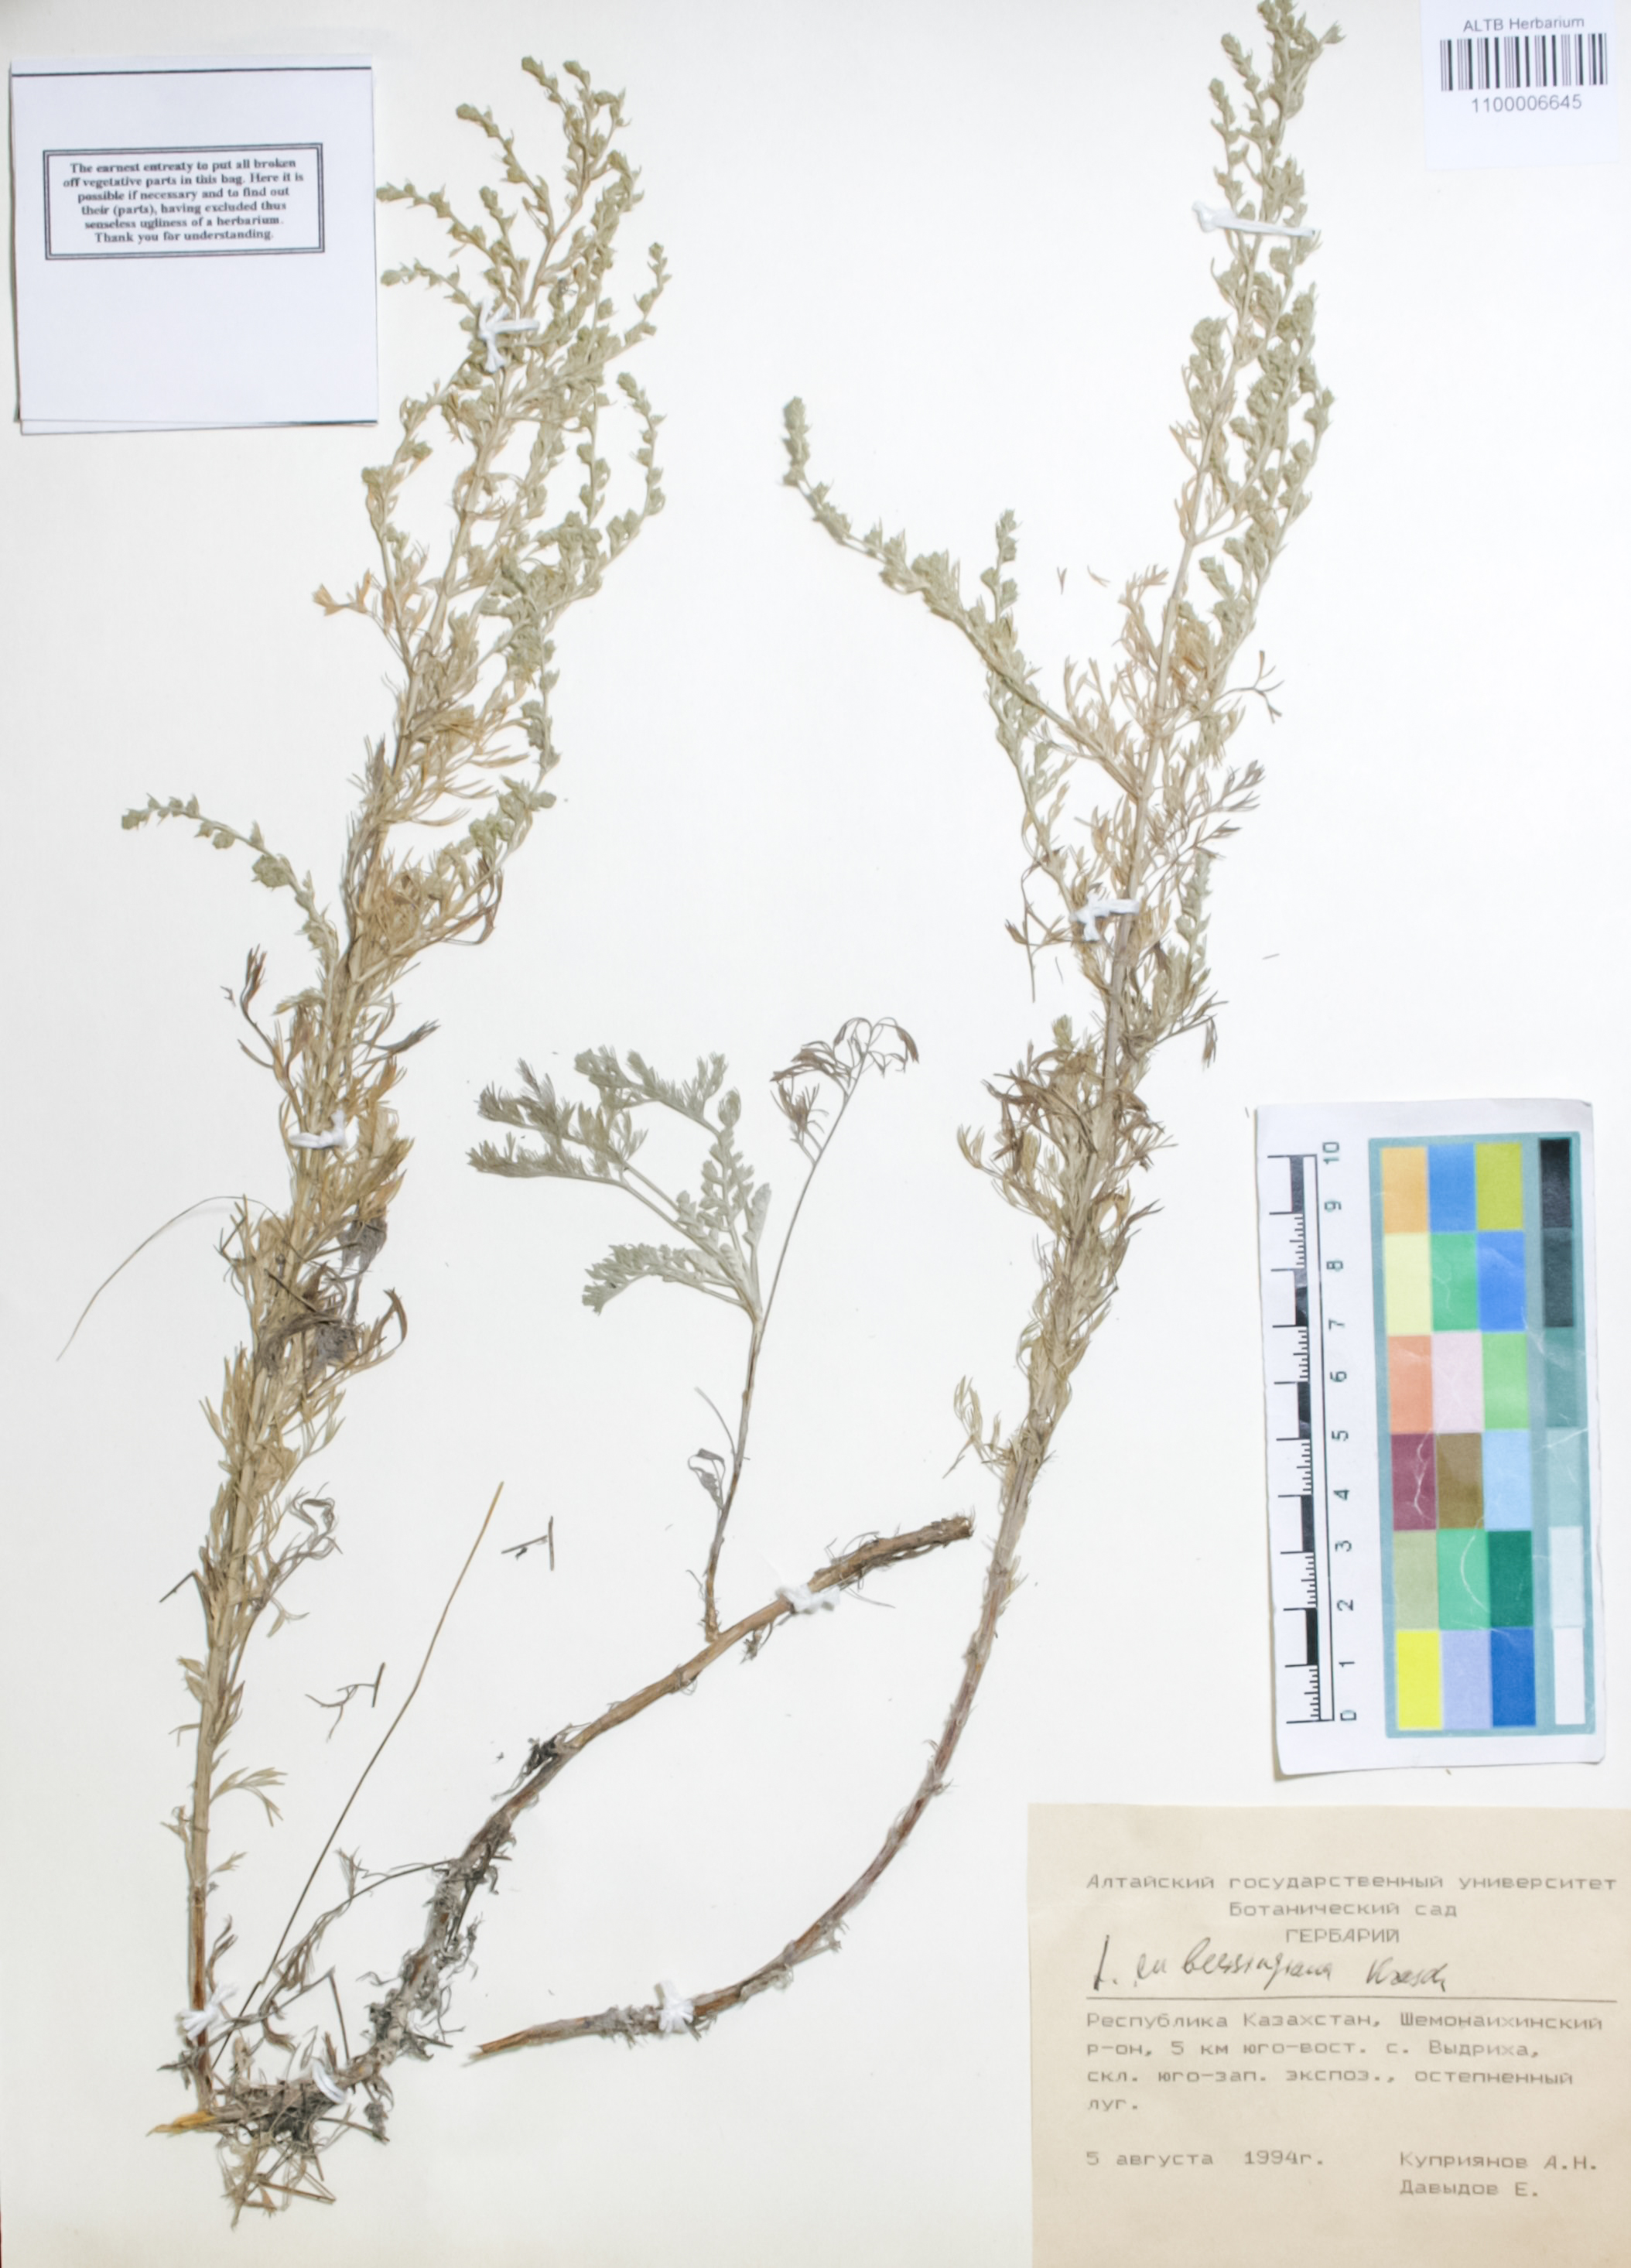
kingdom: Plantae
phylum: Tracheophyta
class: Magnoliopsida
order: Asterales
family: Asteraceae
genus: Artemisia
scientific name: Artemisia sublessingiana
